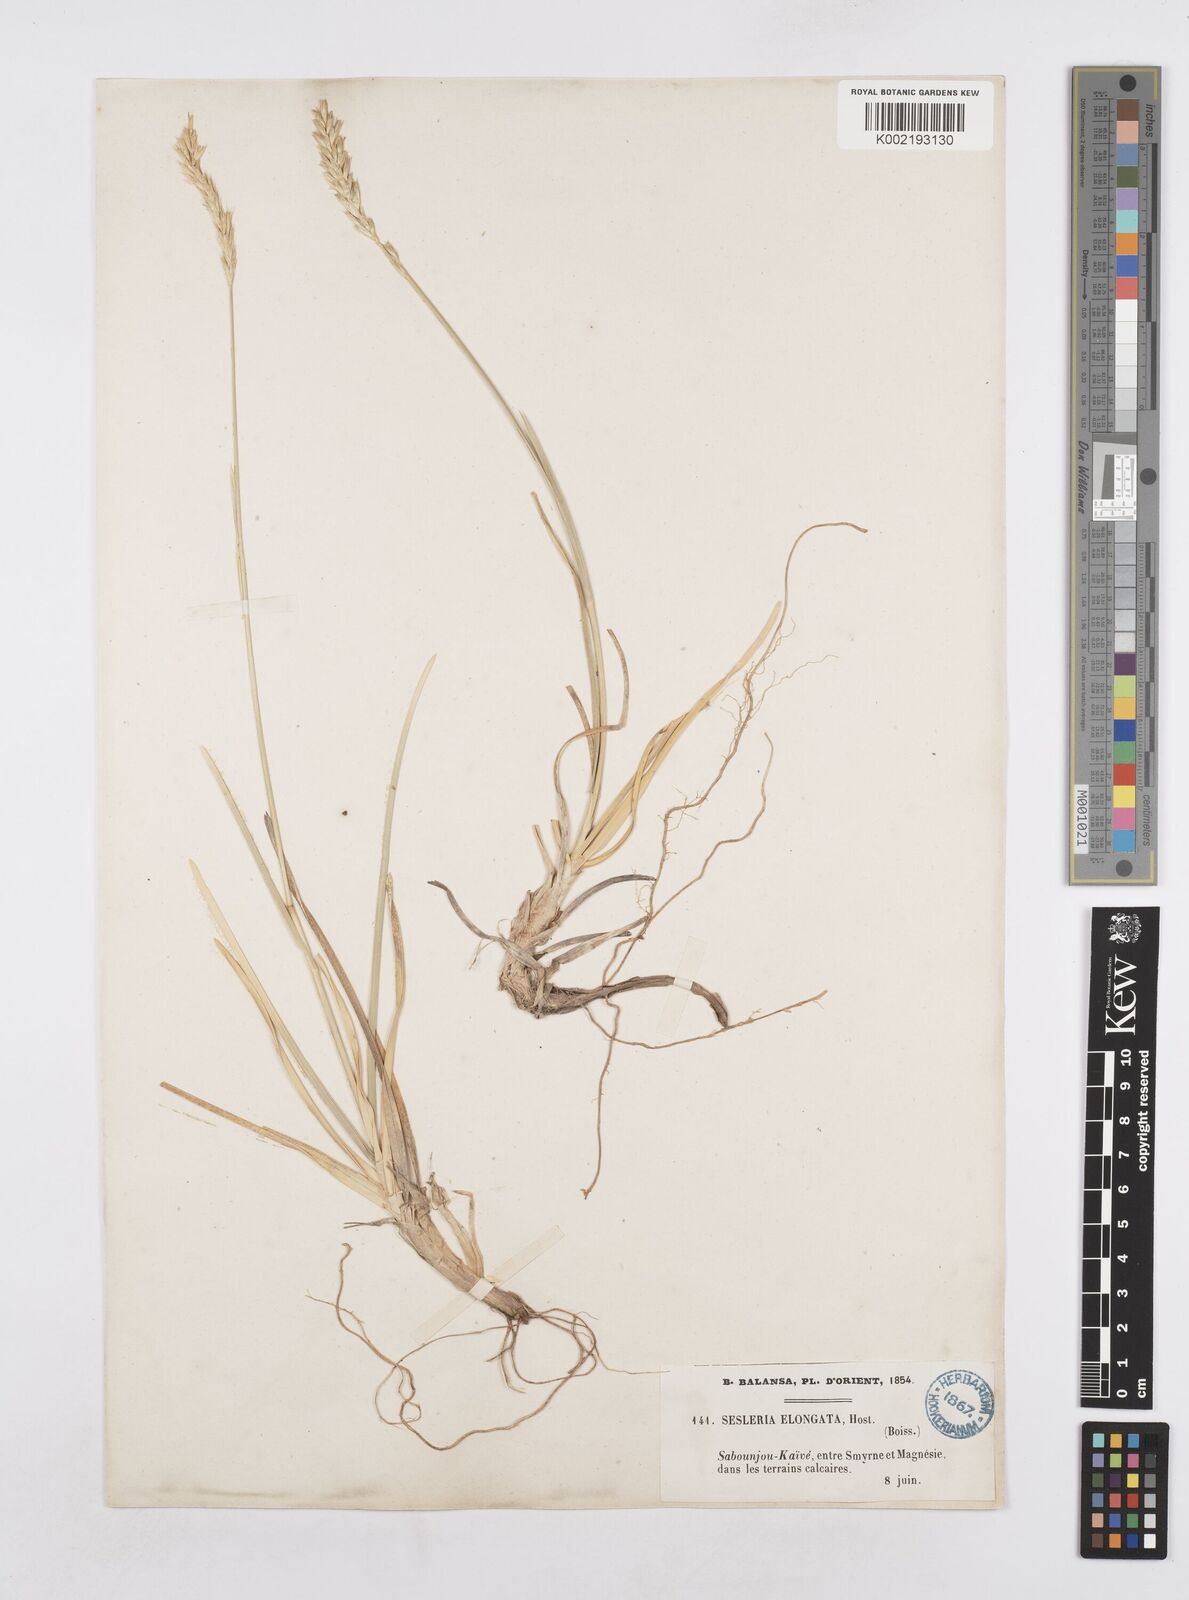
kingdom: Plantae
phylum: Tracheophyta
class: Liliopsida
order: Poales
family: Poaceae
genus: Sesleria
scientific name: Sesleria alba
